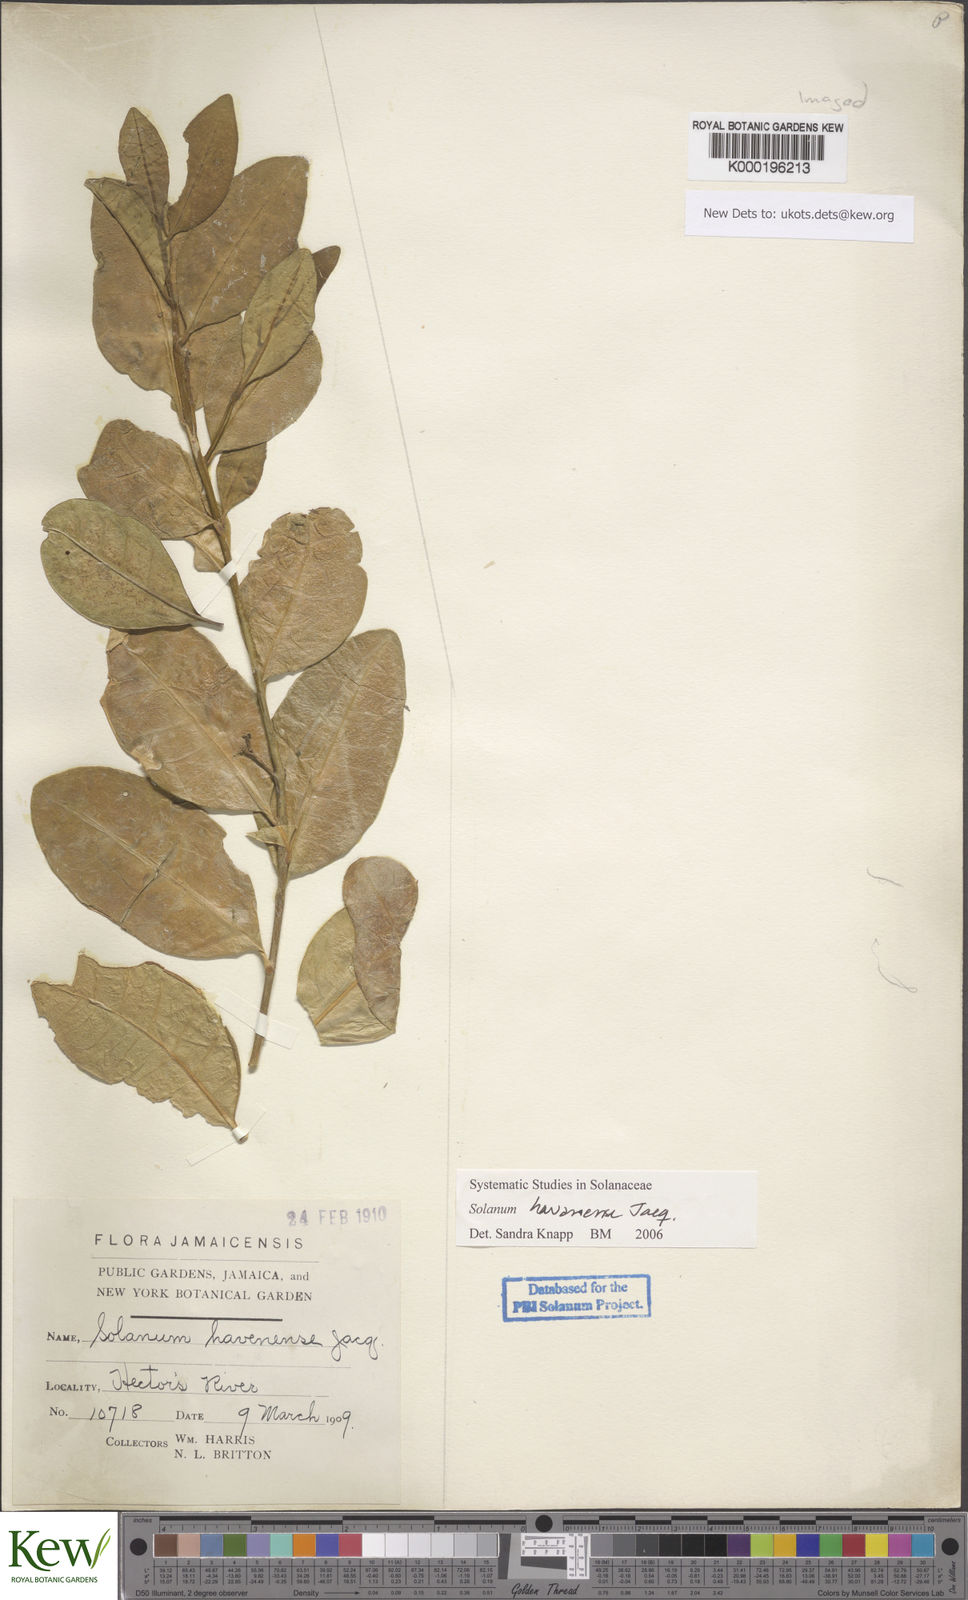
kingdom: Plantae
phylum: Tracheophyta
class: Magnoliopsida
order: Solanales
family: Solanaceae
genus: Solanum
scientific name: Solanum havanense
